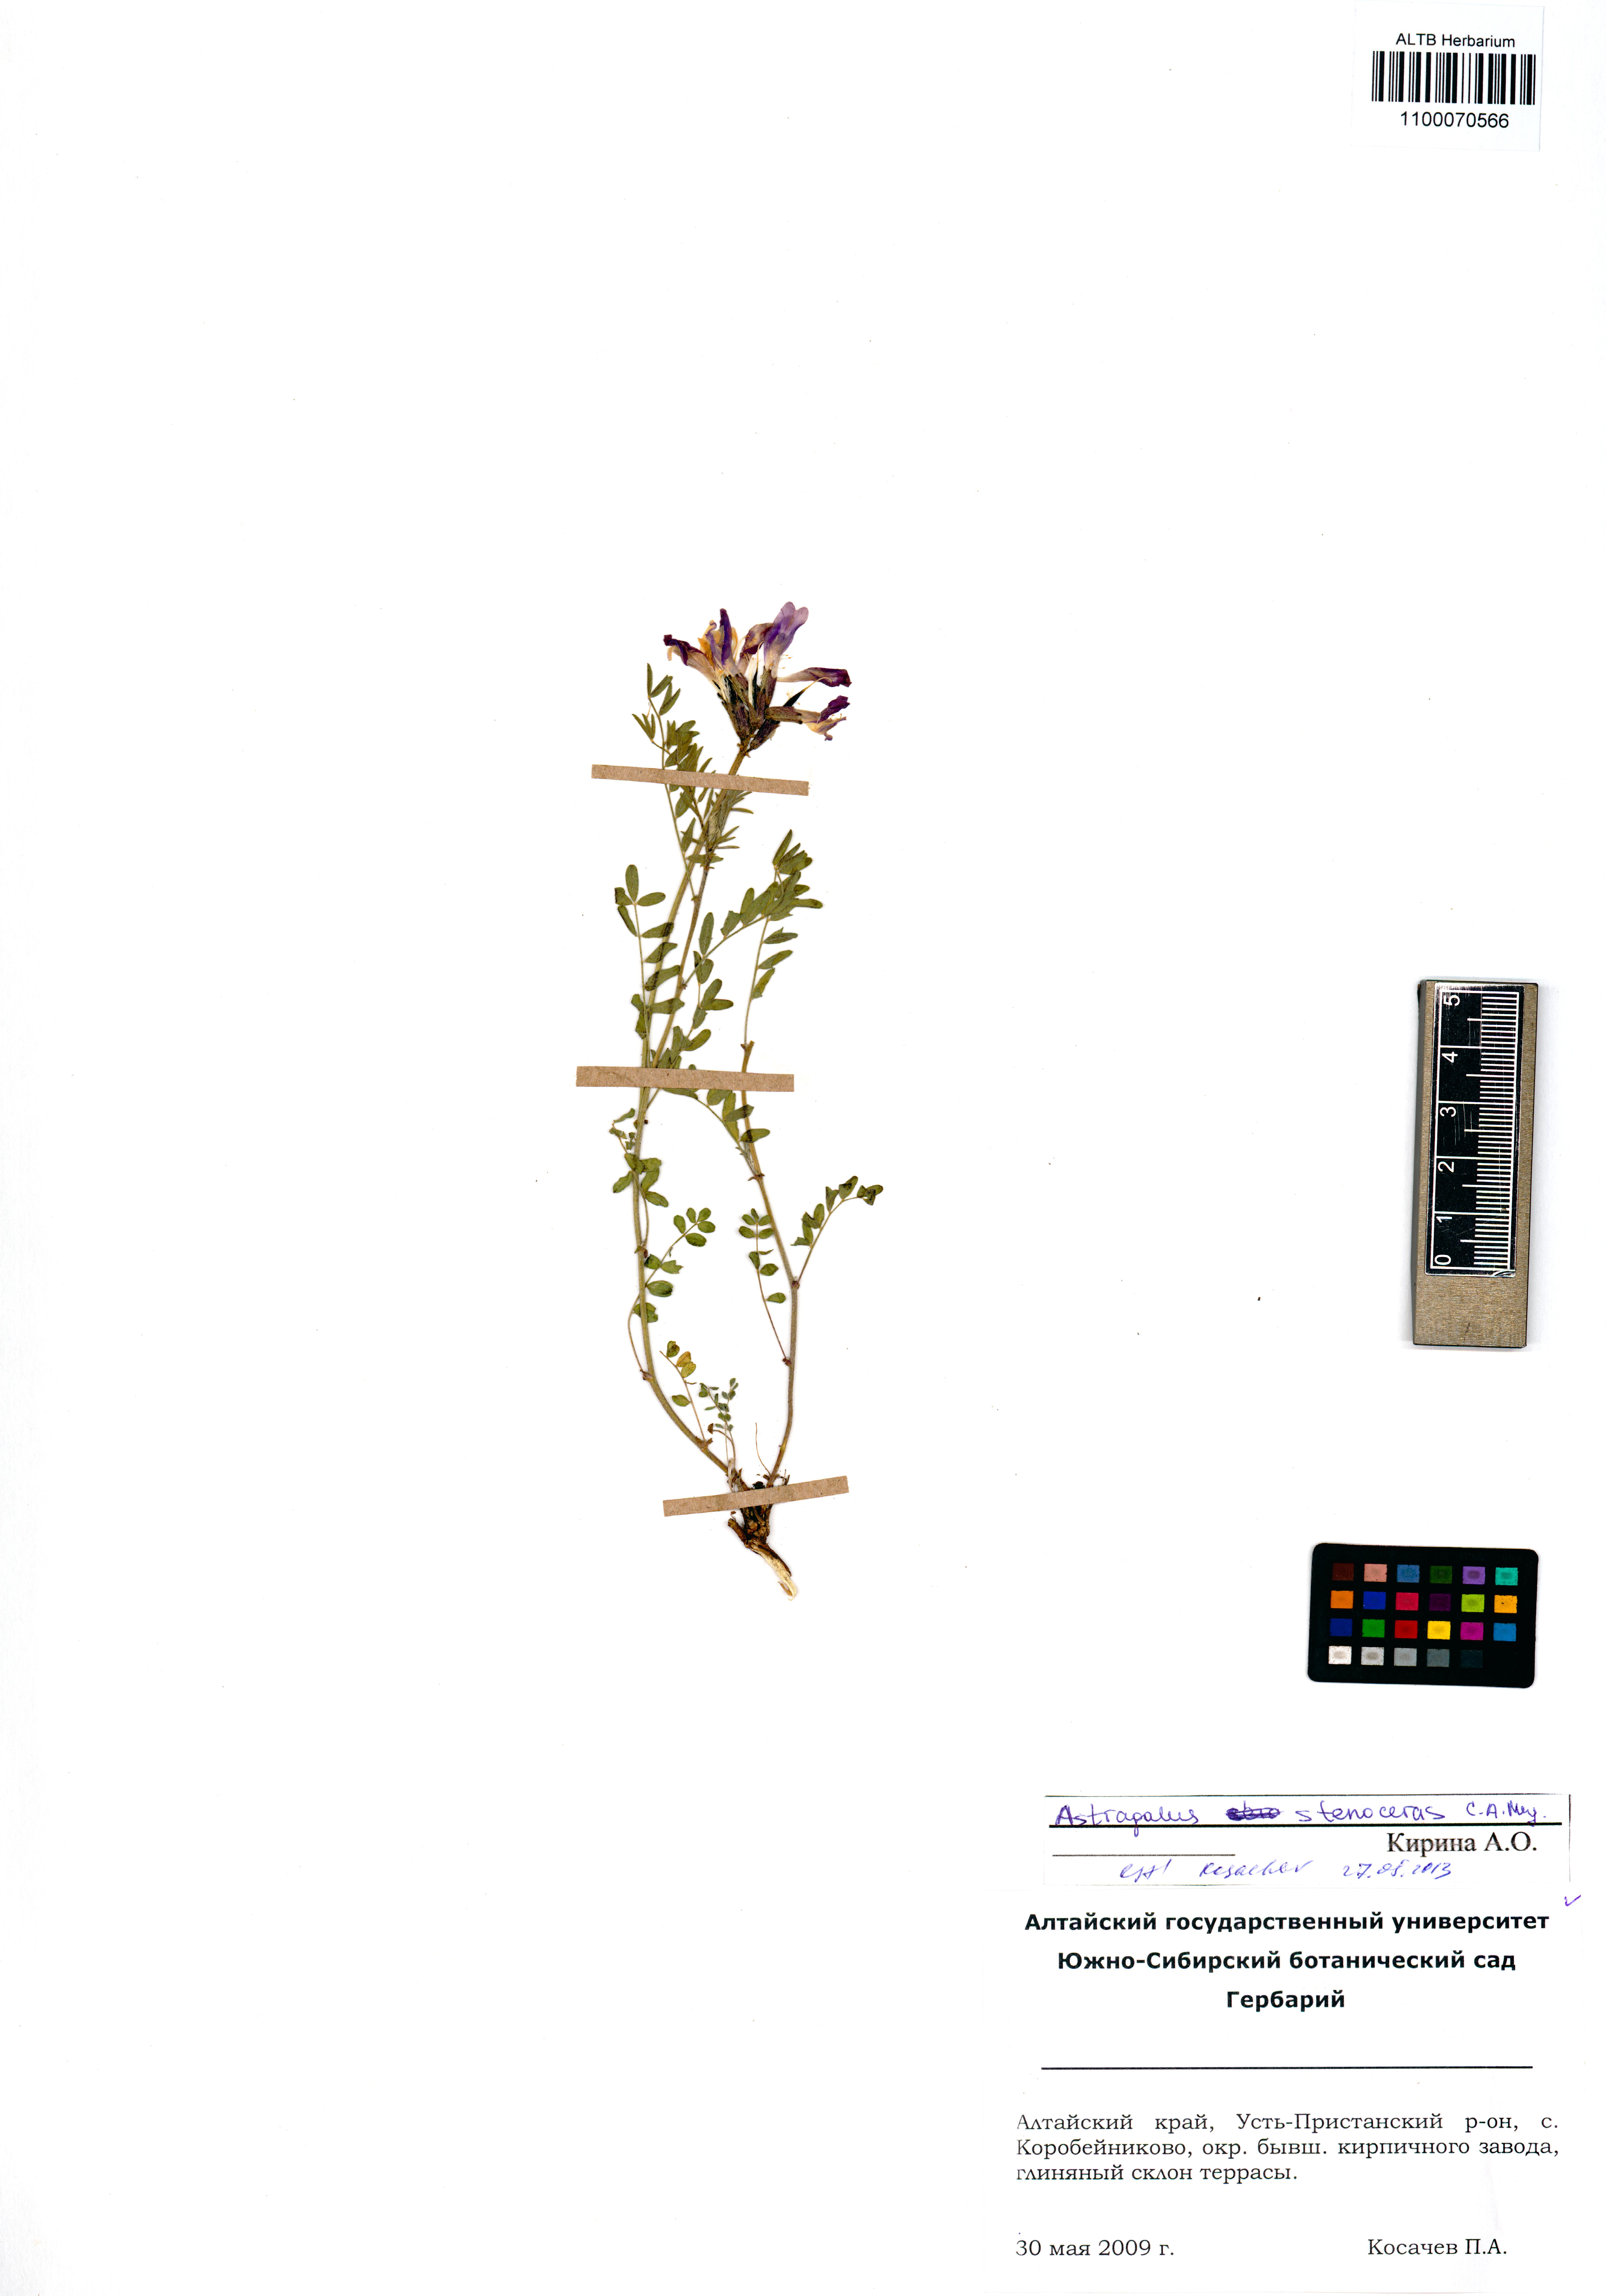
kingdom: Plantae
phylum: Tracheophyta
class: Magnoliopsida
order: Fabales
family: Fabaceae
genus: Astragalus
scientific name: Astragalus stenoceras
